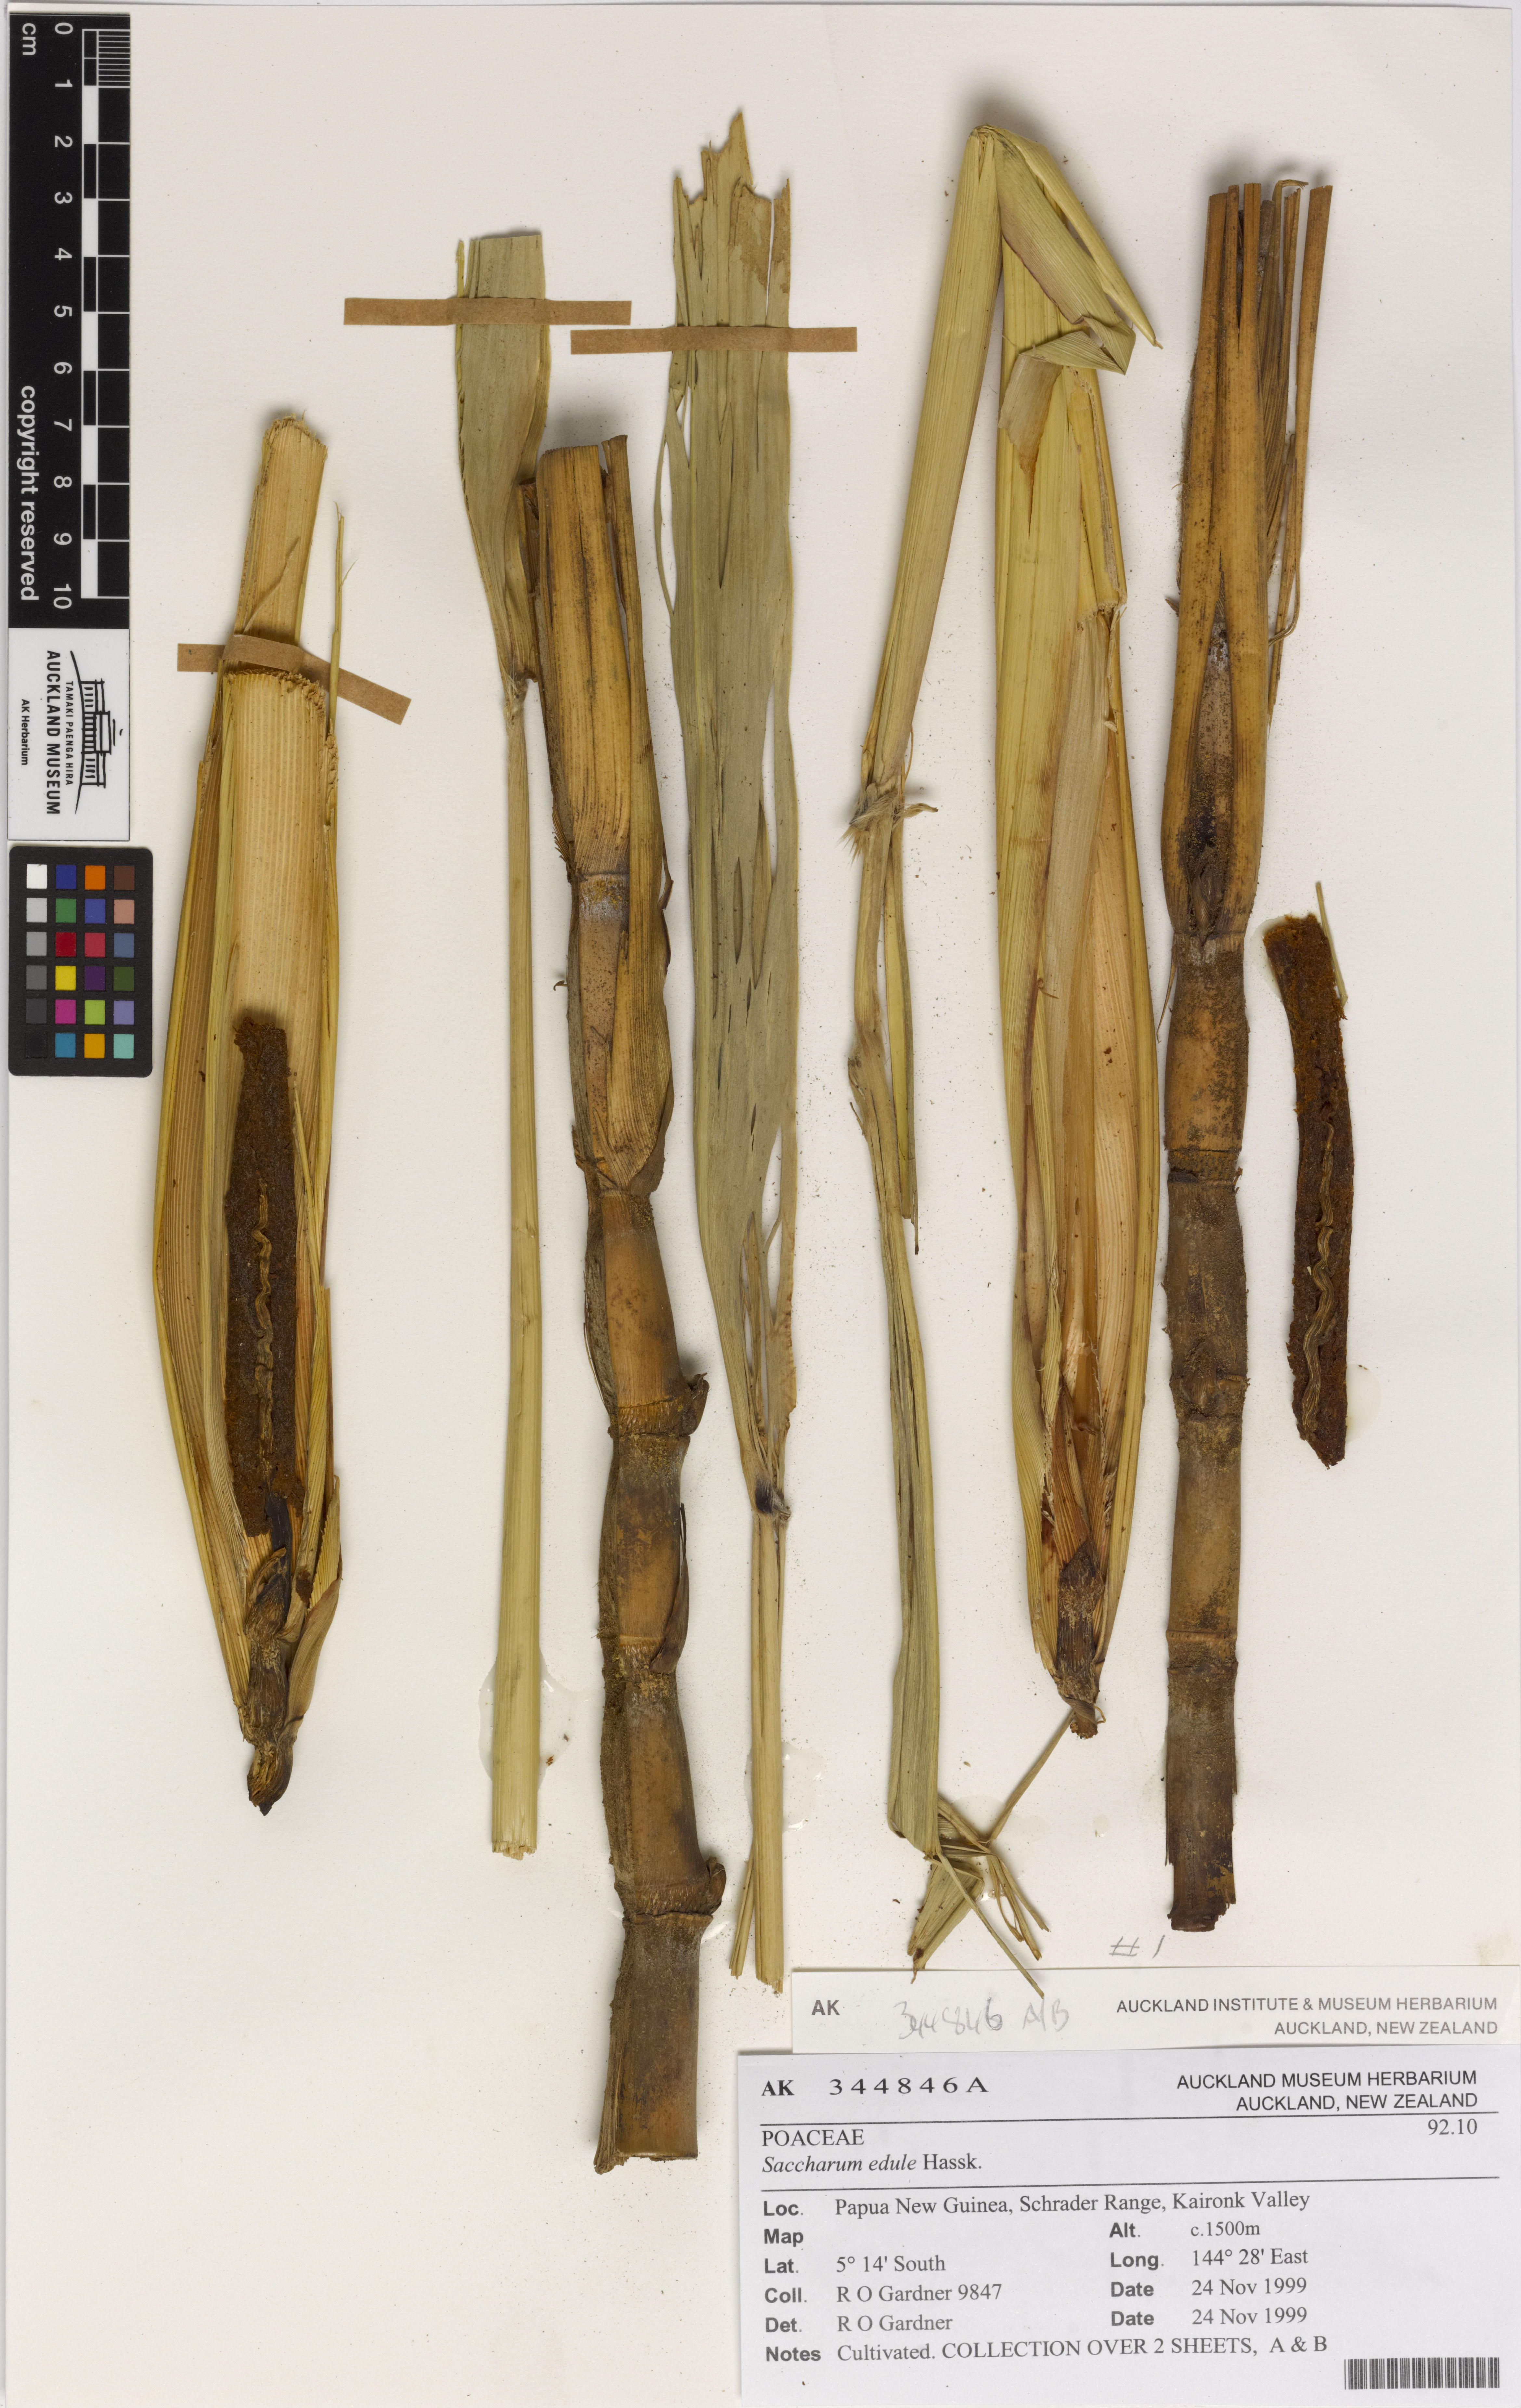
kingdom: Plantae
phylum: Tracheophyta
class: Liliopsida
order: Poales
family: Poaceae
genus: Saccharum
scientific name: Saccharum edule
